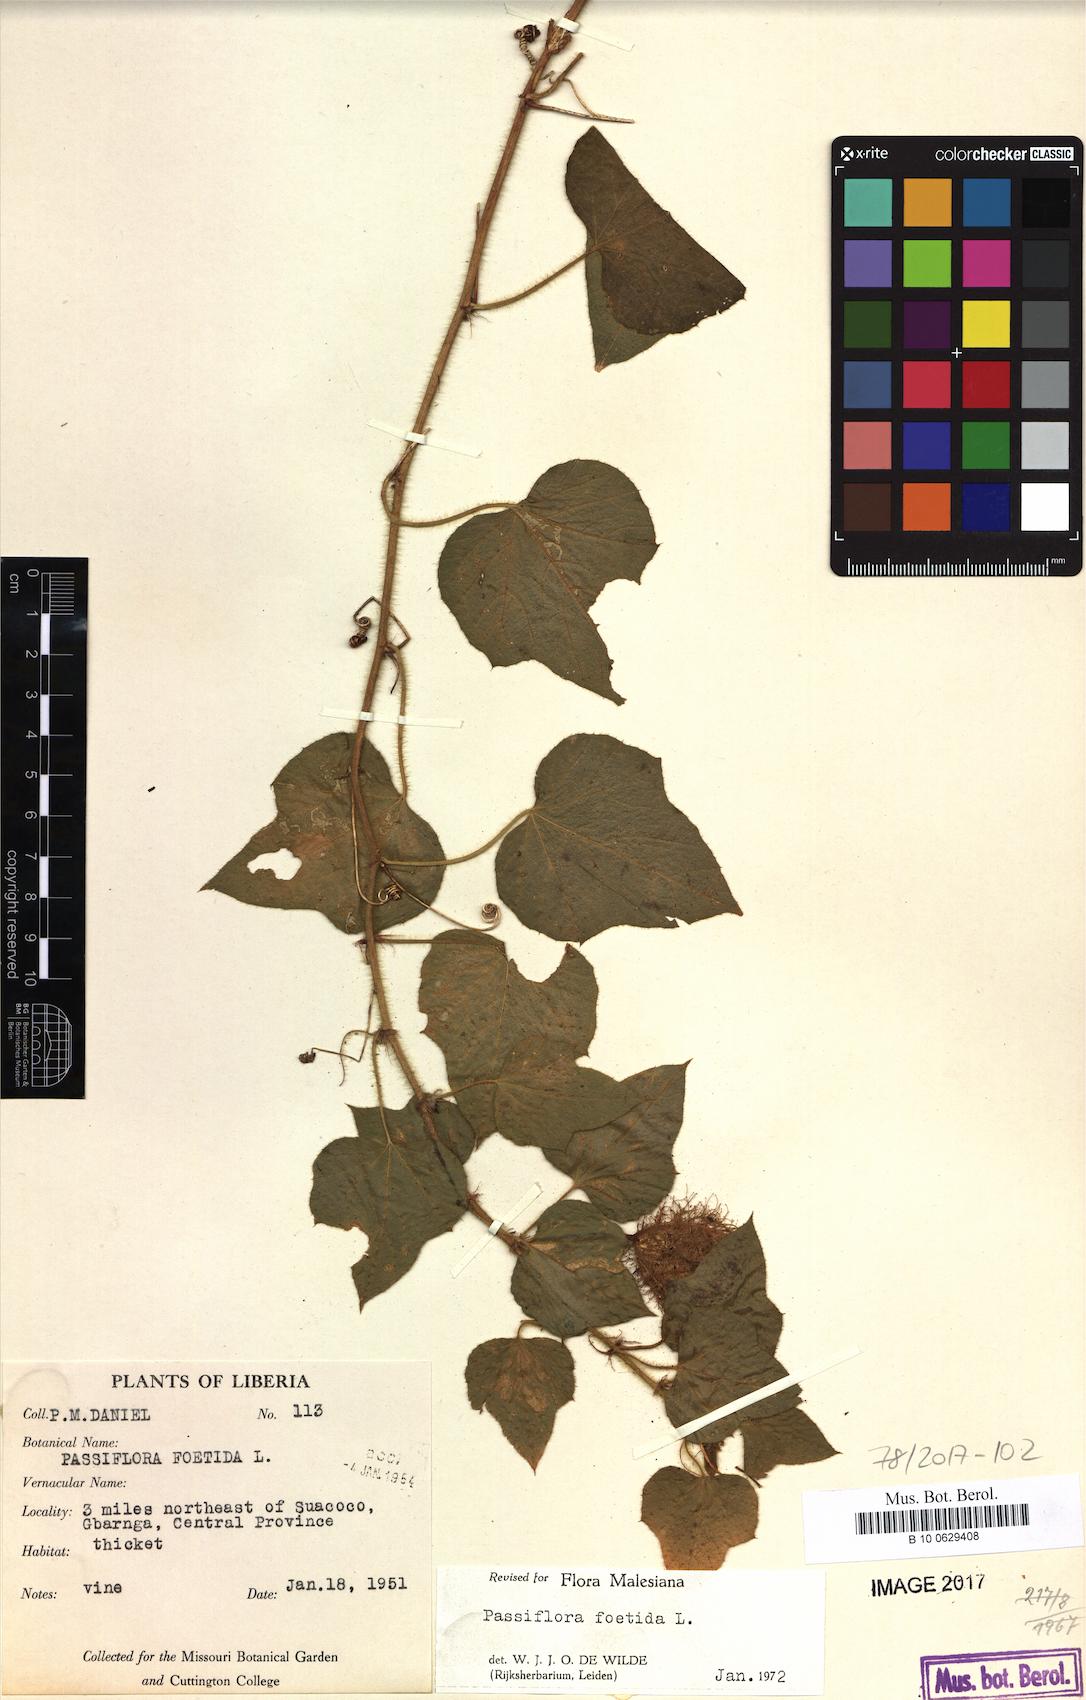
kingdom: Plantae
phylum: Tracheophyta
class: Magnoliopsida
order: Malpighiales
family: Passifloraceae
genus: Passiflora
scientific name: Passiflora foetida
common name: Fetid passionflower
